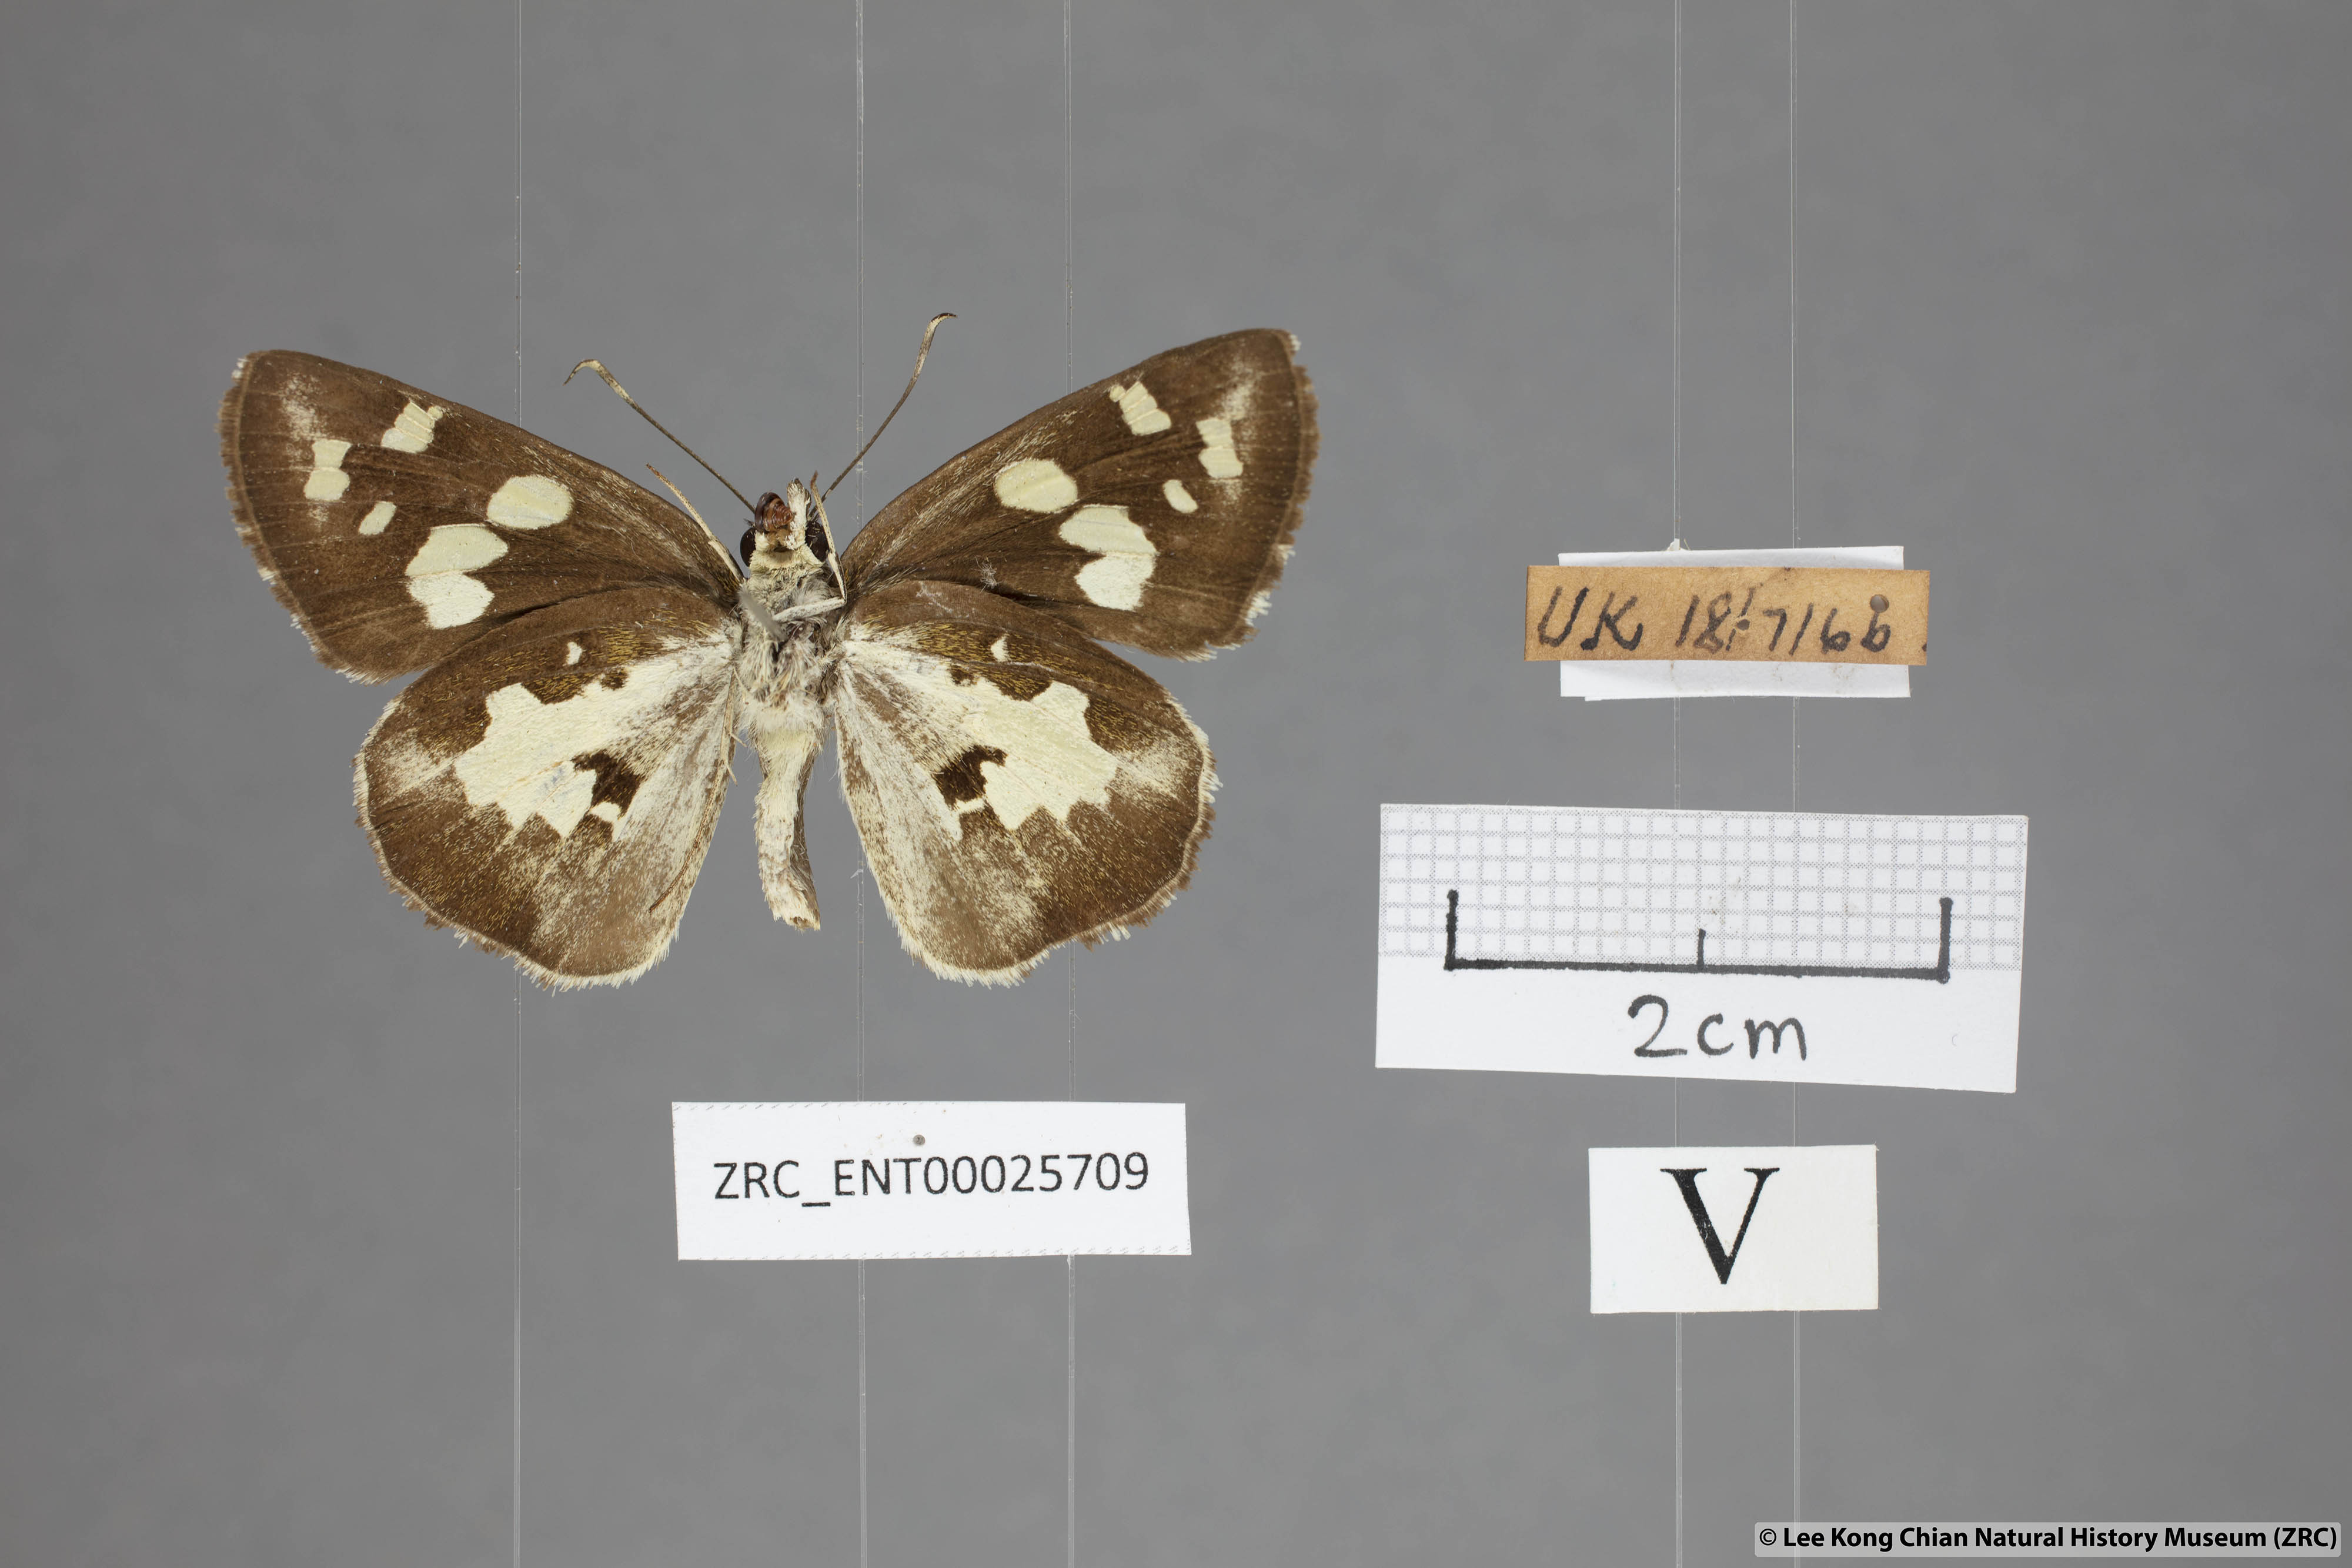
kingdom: Animalia
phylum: Arthropoda
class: Insecta
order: Lepidoptera
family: Hesperiidae
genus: Udaspes
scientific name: Udaspes folus
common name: Grass demon
